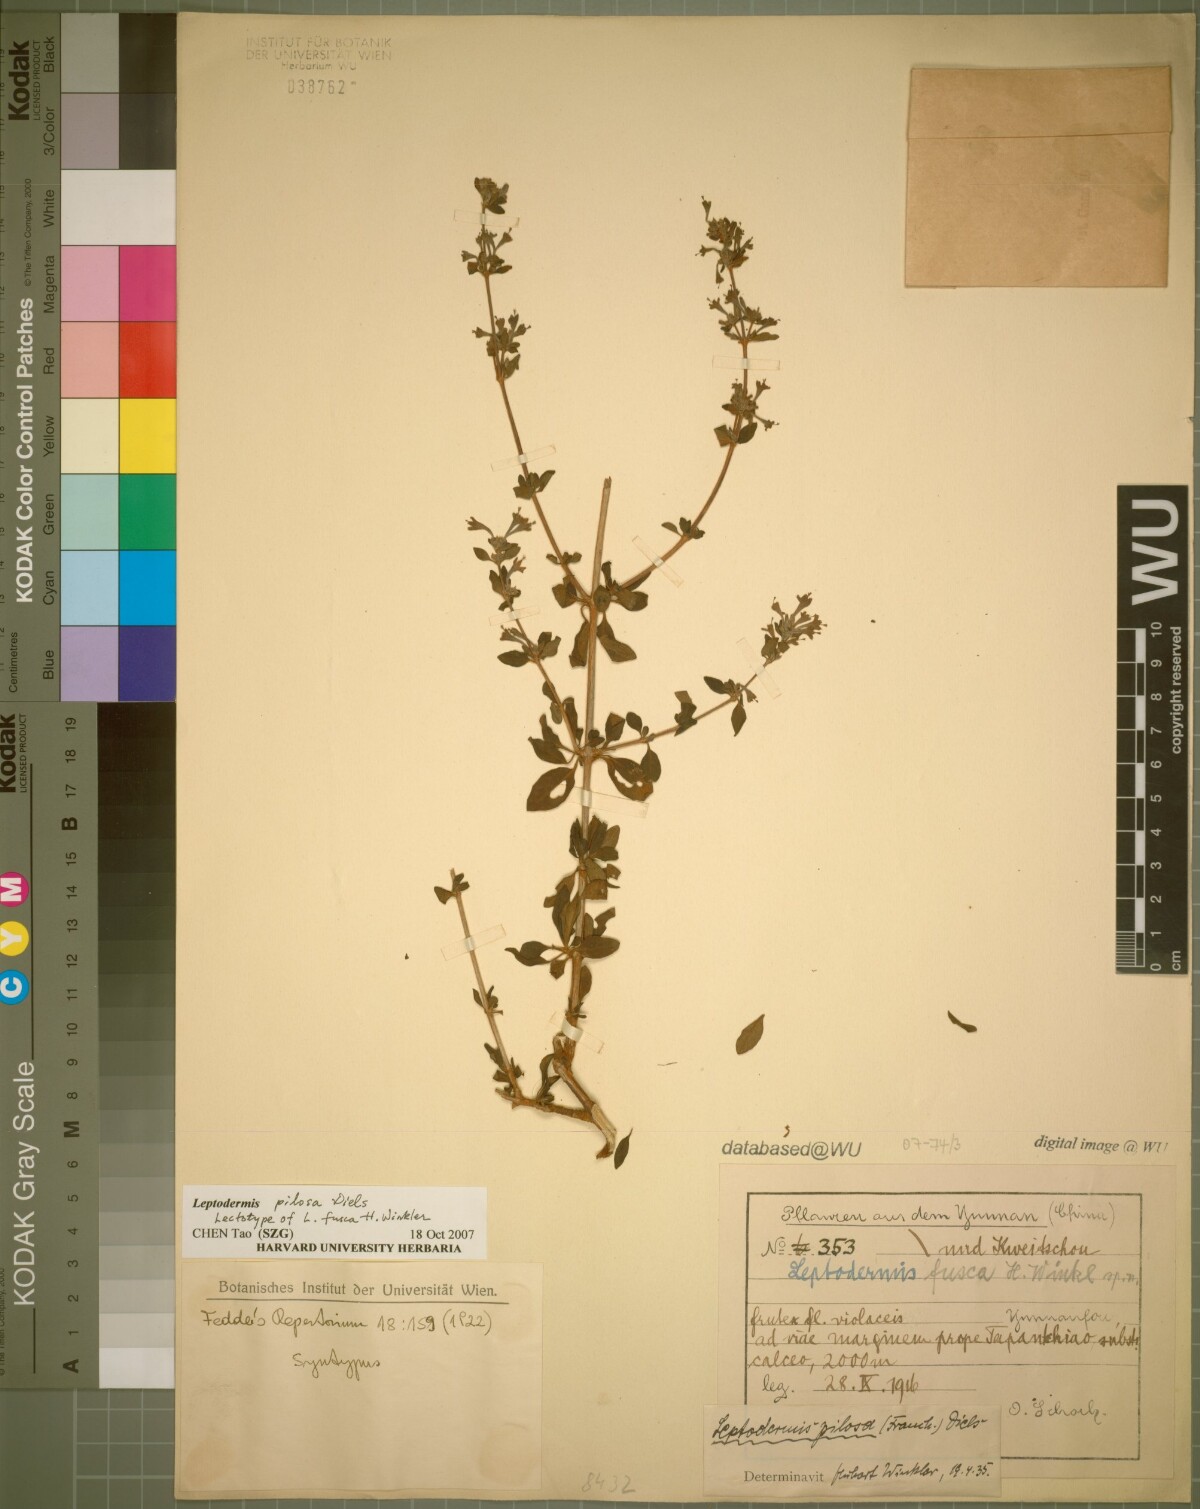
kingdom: Plantae
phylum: Tracheophyta
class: Magnoliopsida
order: Gentianales
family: Rubiaceae
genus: Leptodermis
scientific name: Leptodermis pilosa
